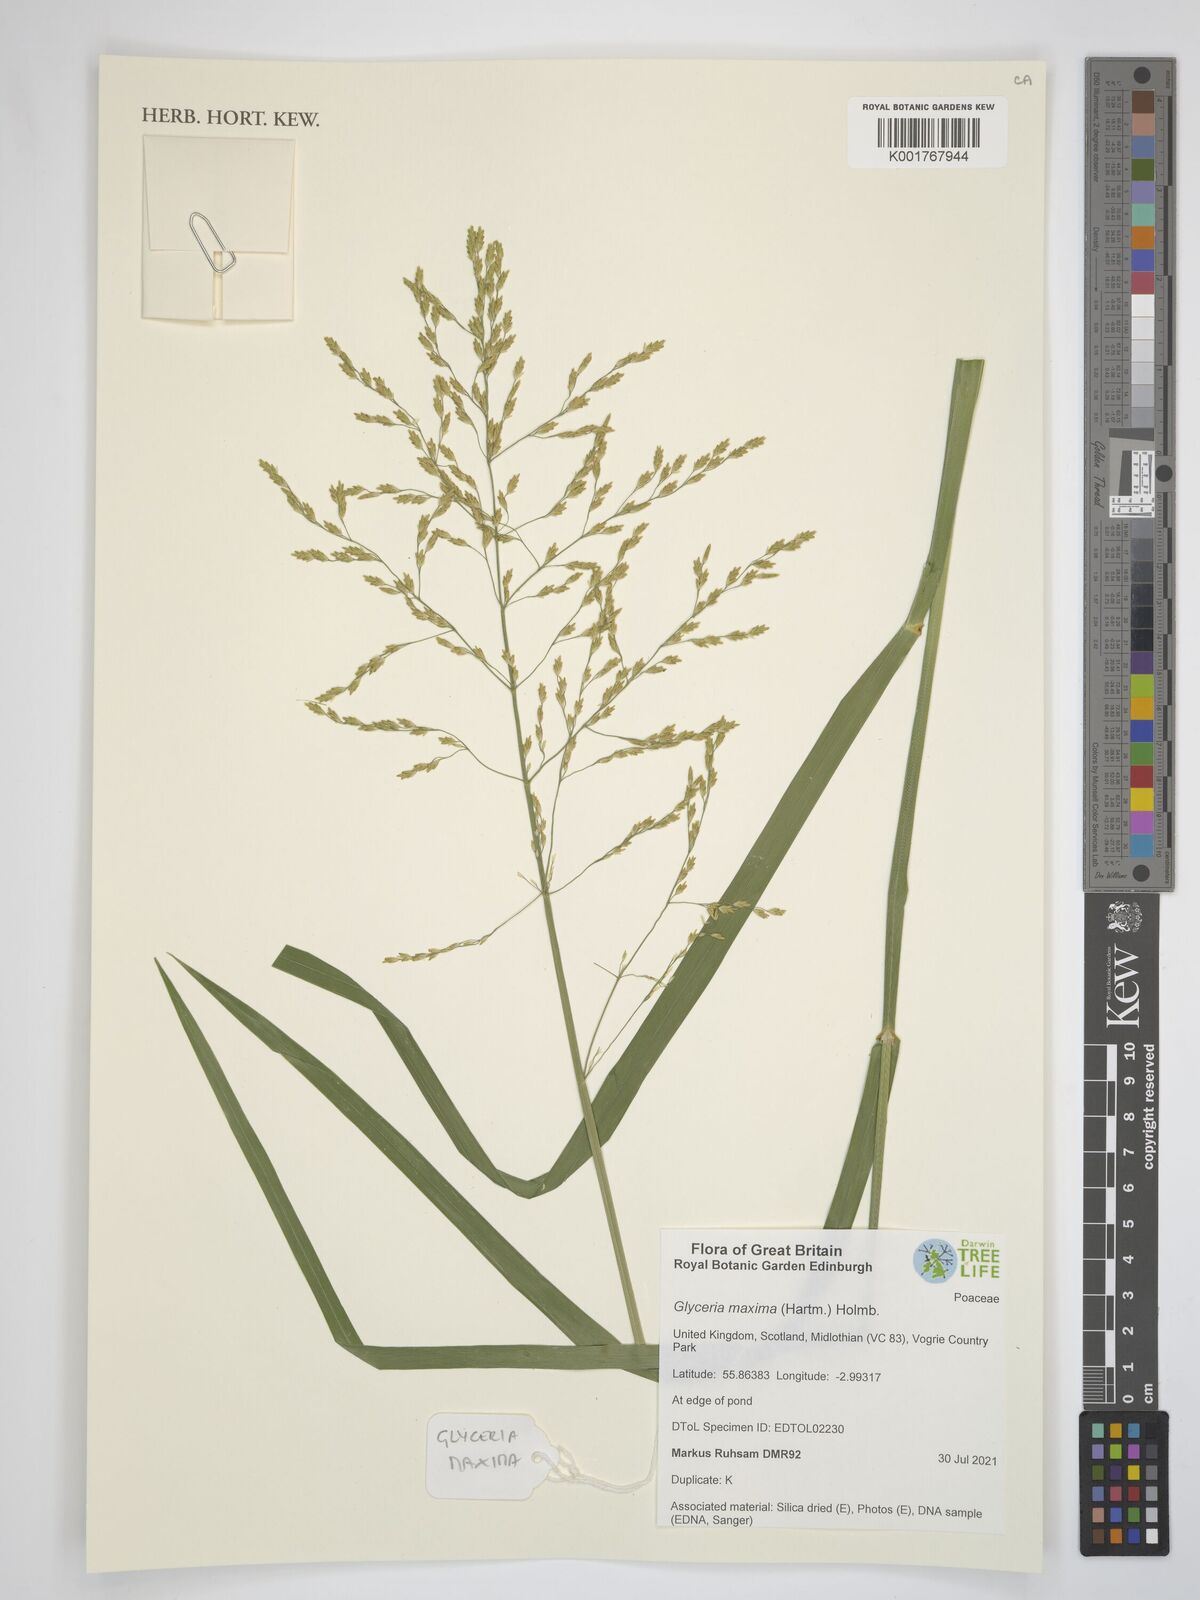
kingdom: Plantae
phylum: Tracheophyta
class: Liliopsida
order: Poales
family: Poaceae
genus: Glyceria
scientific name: Glyceria maxima
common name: Reed mannagrass
